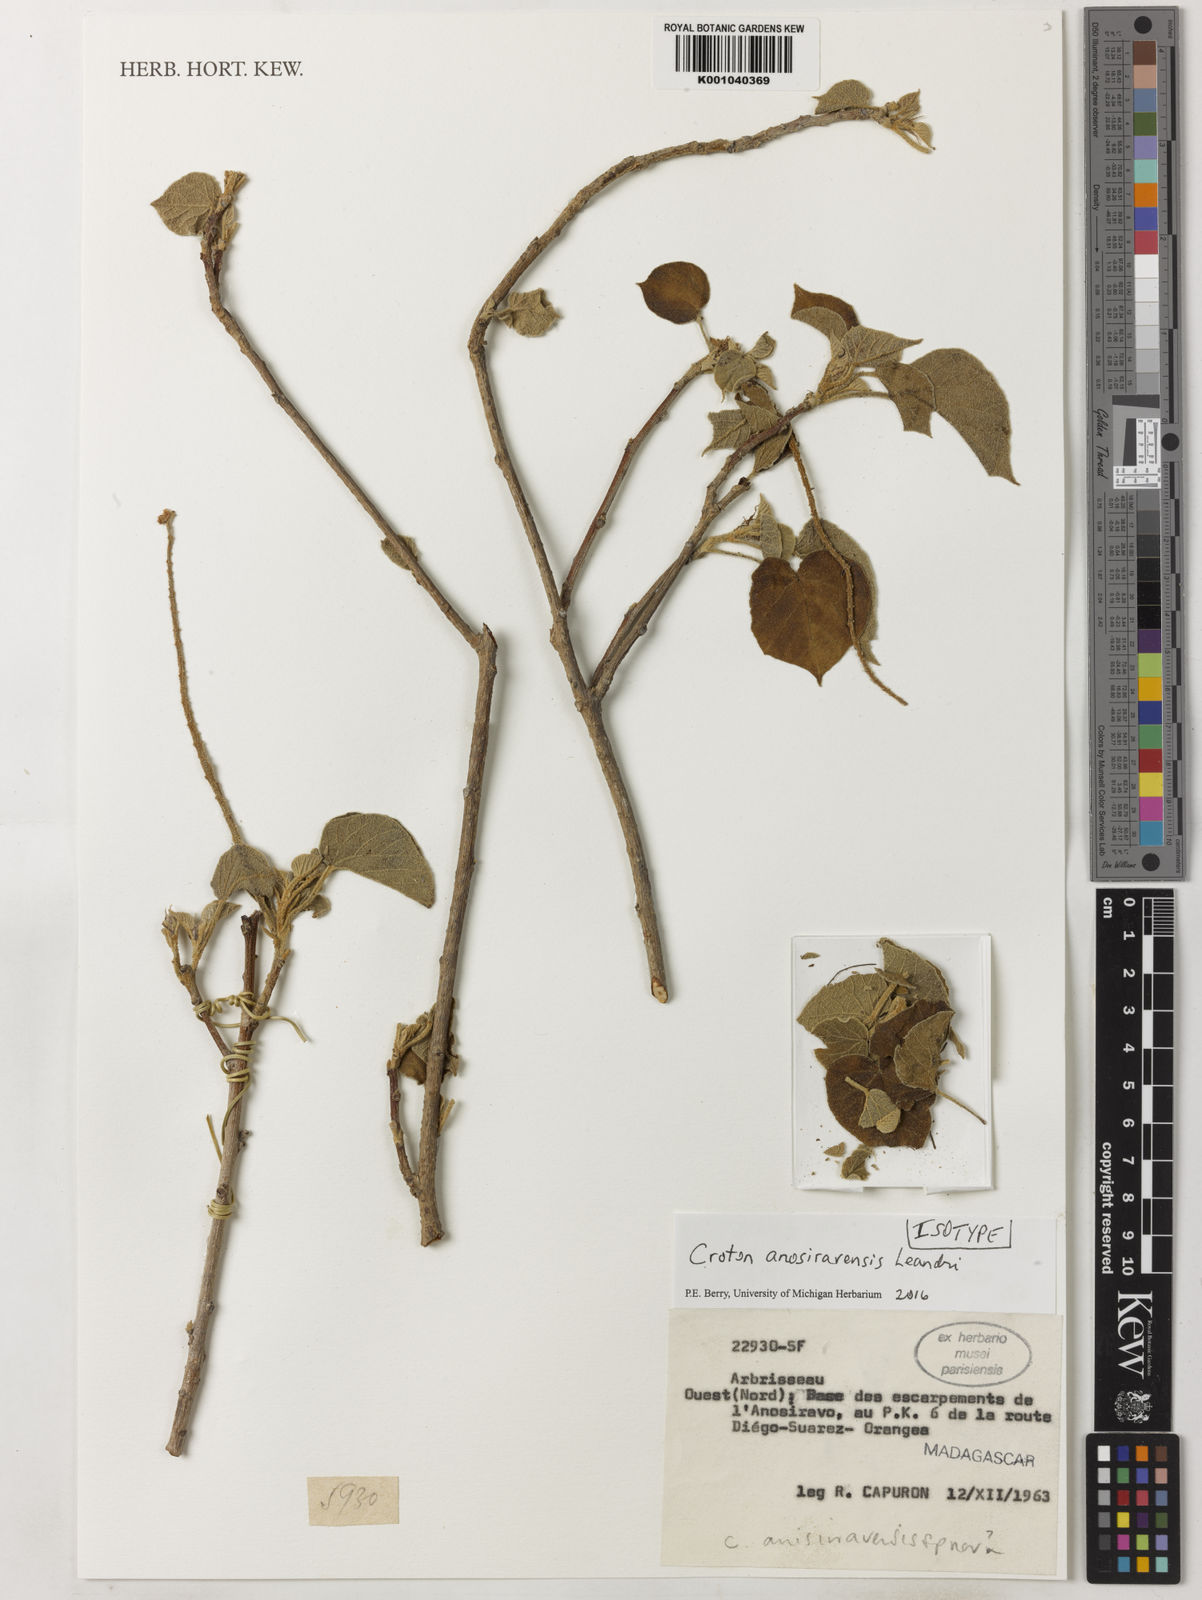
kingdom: Plantae
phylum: Tracheophyta
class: Magnoliopsida
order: Malpighiales
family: Euphorbiaceae
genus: Croton
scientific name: Croton anosiravensis
